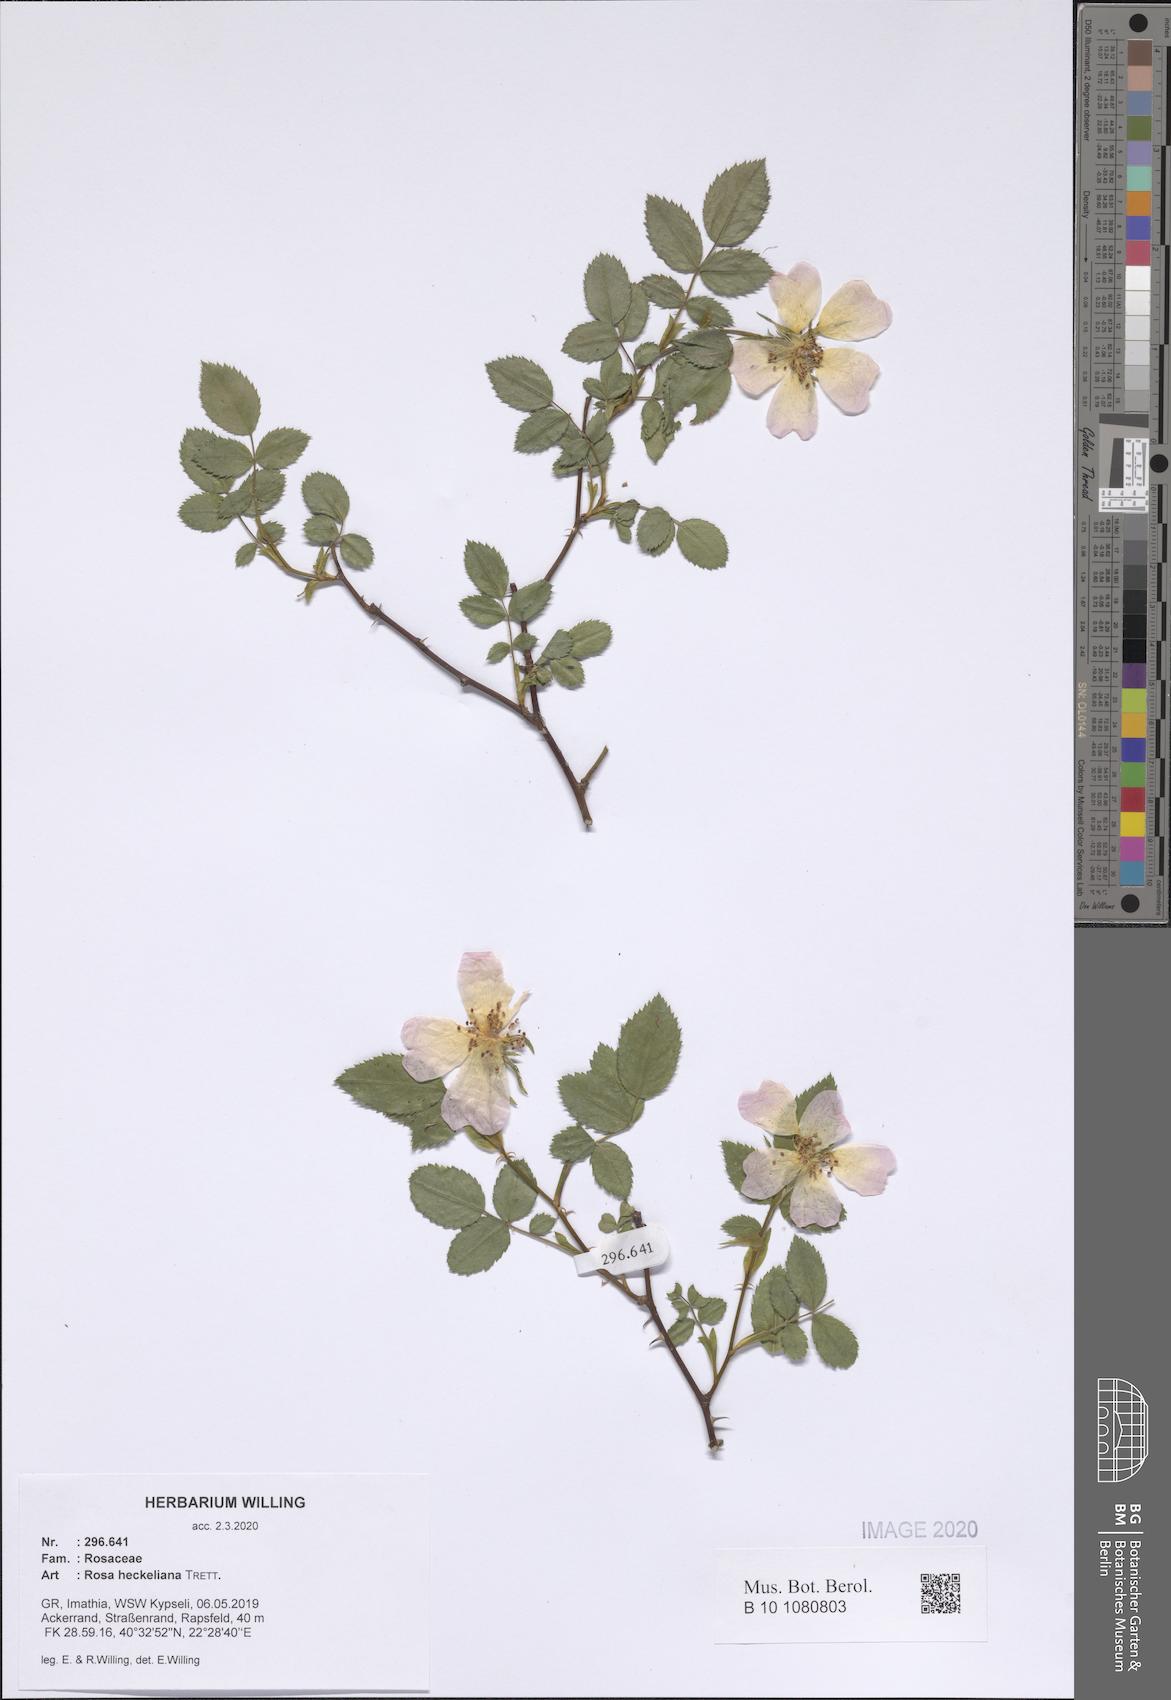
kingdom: Plantae
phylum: Tracheophyta
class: Magnoliopsida
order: Rosales
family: Rosaceae
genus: Rosa
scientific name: Rosa heckeliana
